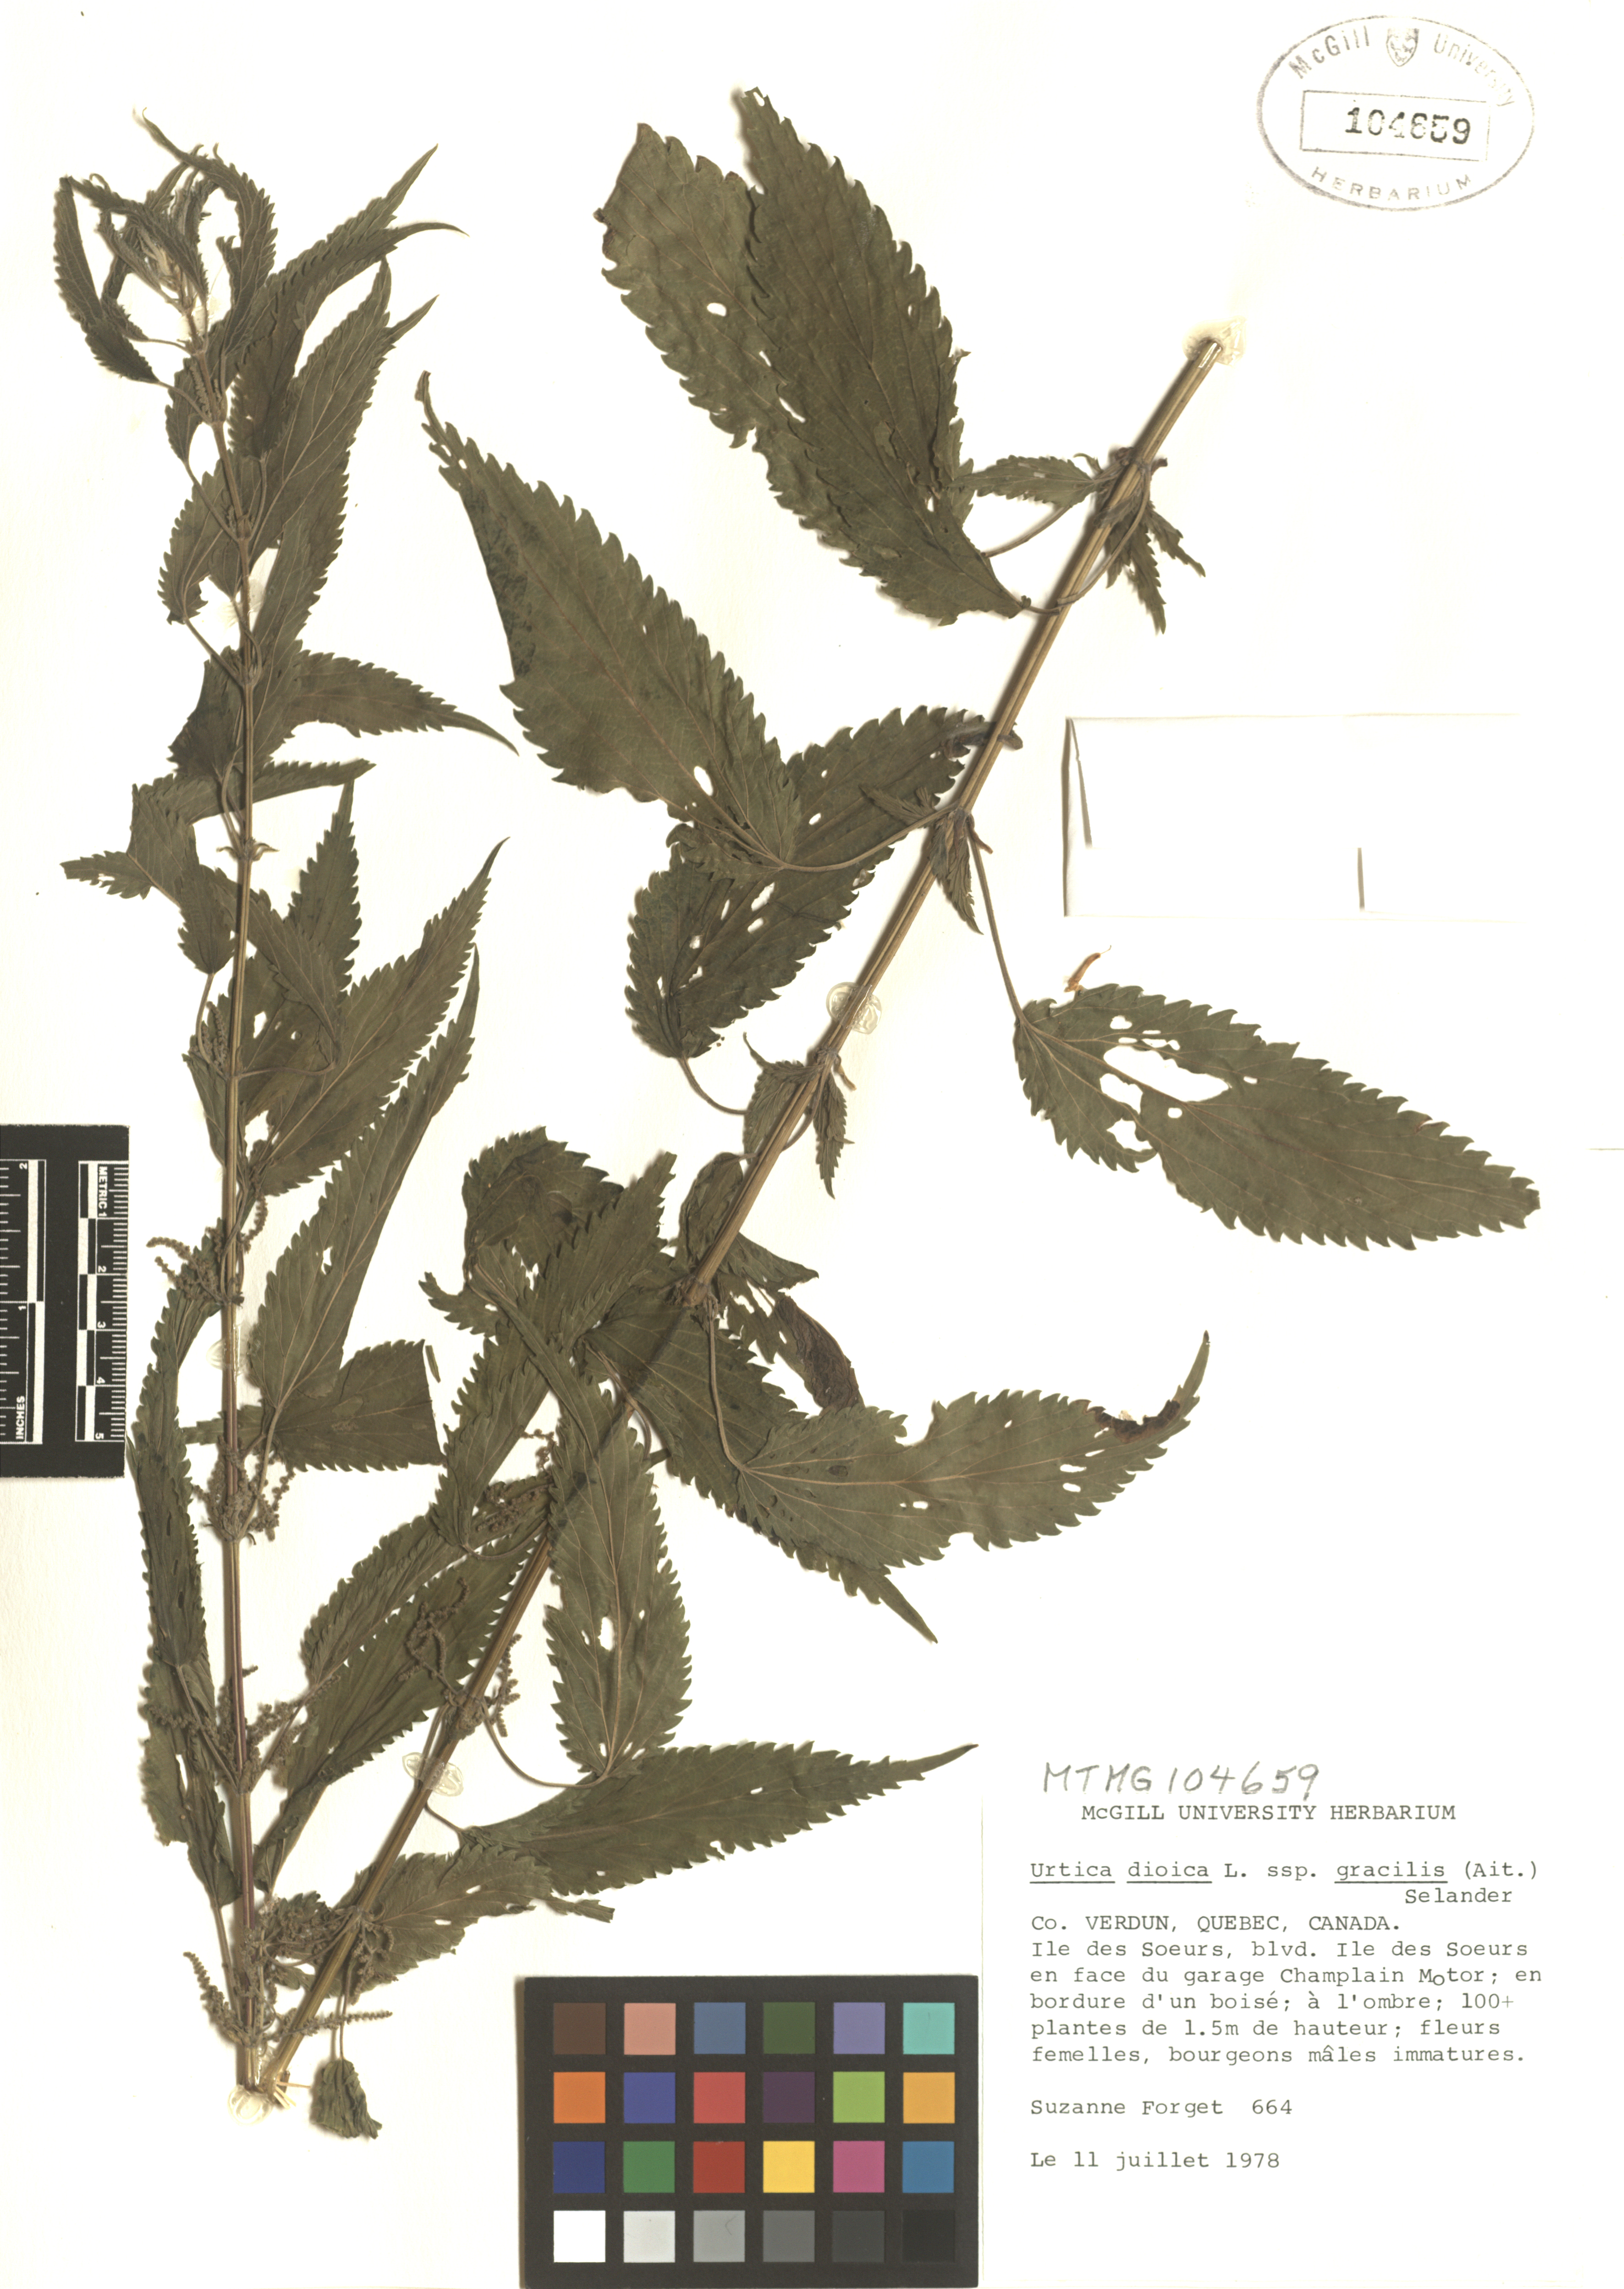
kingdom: Plantae
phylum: Tracheophyta
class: Magnoliopsida
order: Rosales
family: Urticaceae
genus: Urtica
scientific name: Urtica gracilis
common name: Slender stinging nettle
